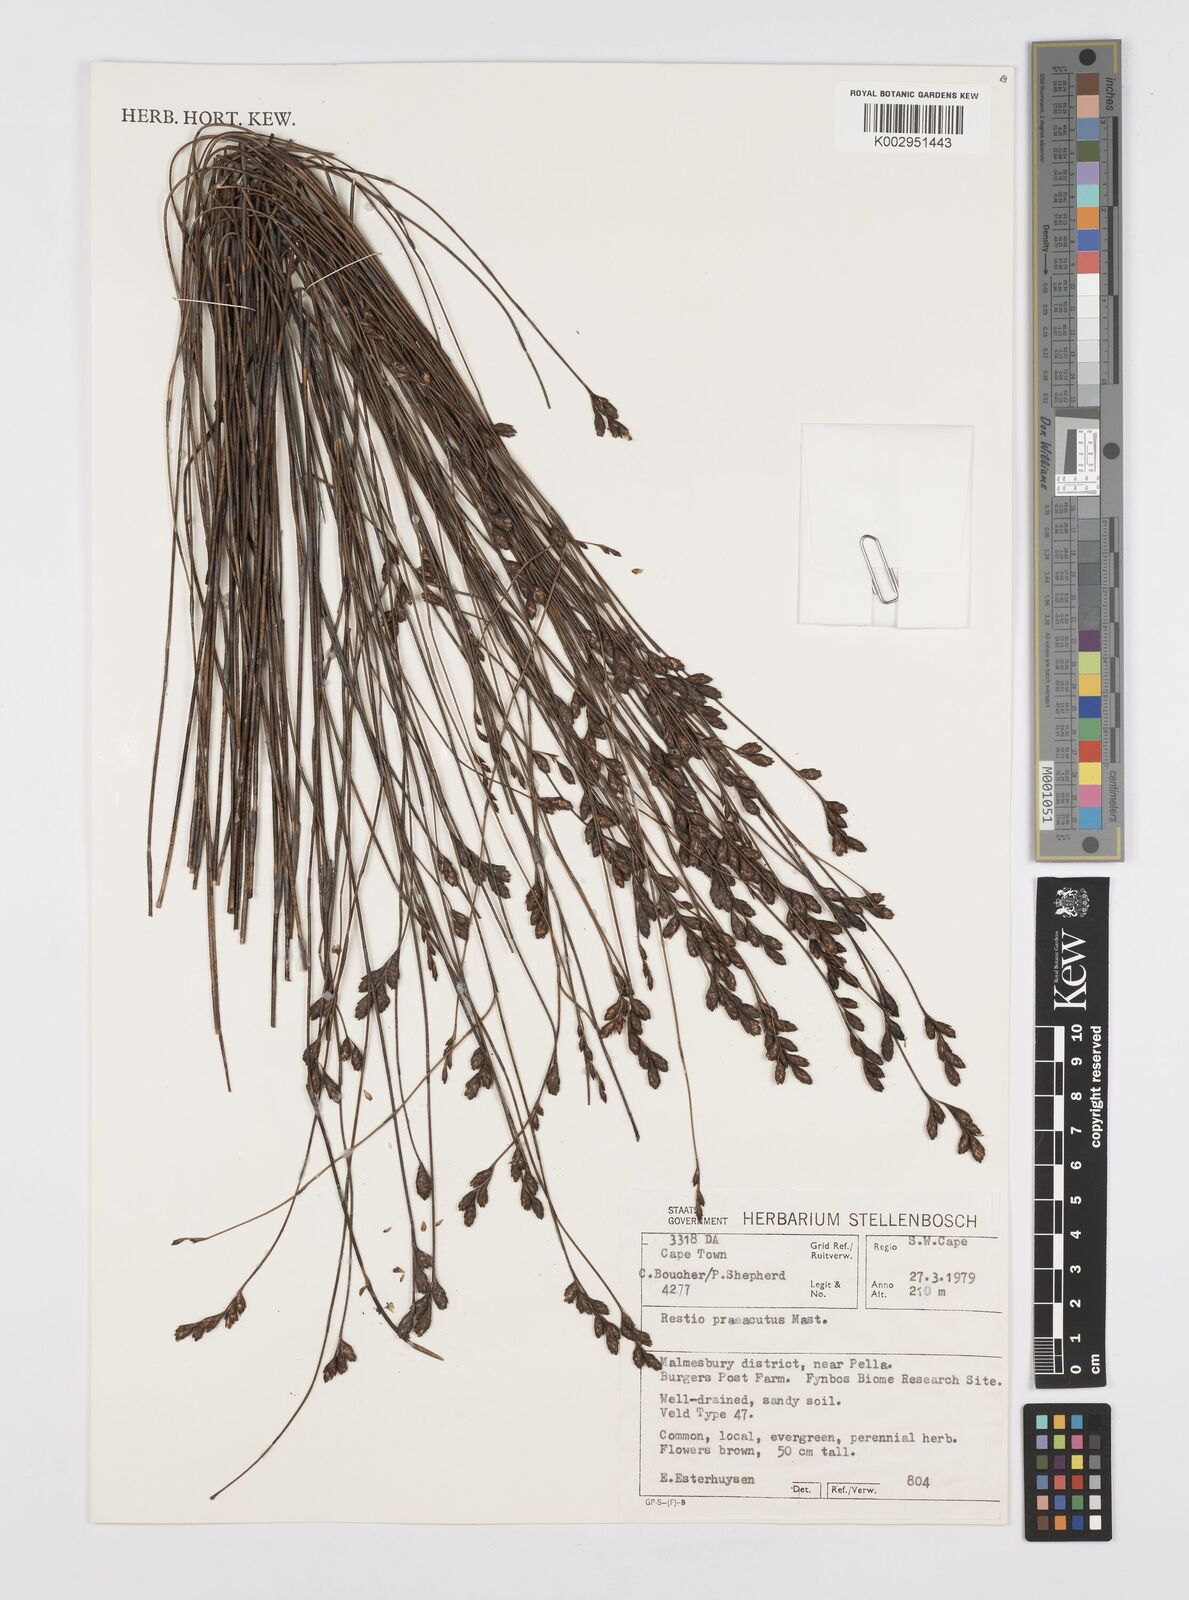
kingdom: Plantae
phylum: Tracheophyta
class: Liliopsida
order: Poales
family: Restionaceae
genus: Restio
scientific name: Restio
